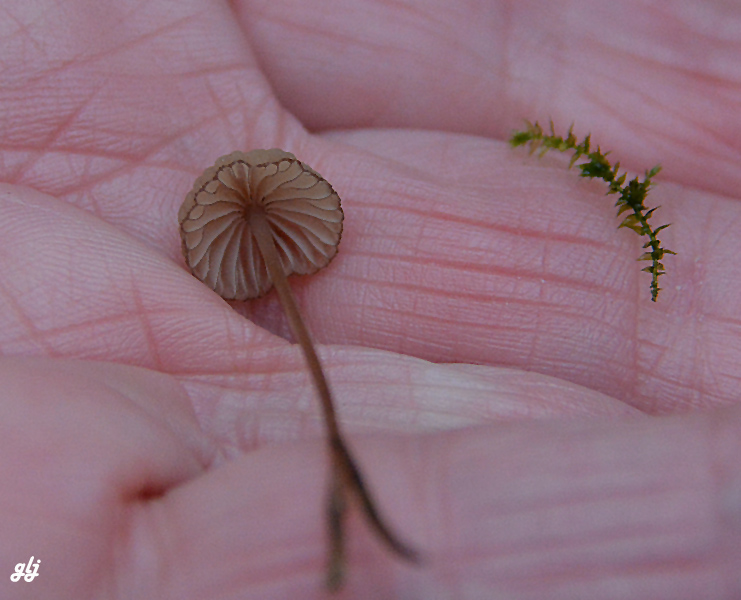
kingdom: Fungi
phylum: Basidiomycota
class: Agaricomycetes
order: Agaricales
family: Mycenaceae
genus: Mycena
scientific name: Mycena sanguinolenta
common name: rødmælket huesvamp
